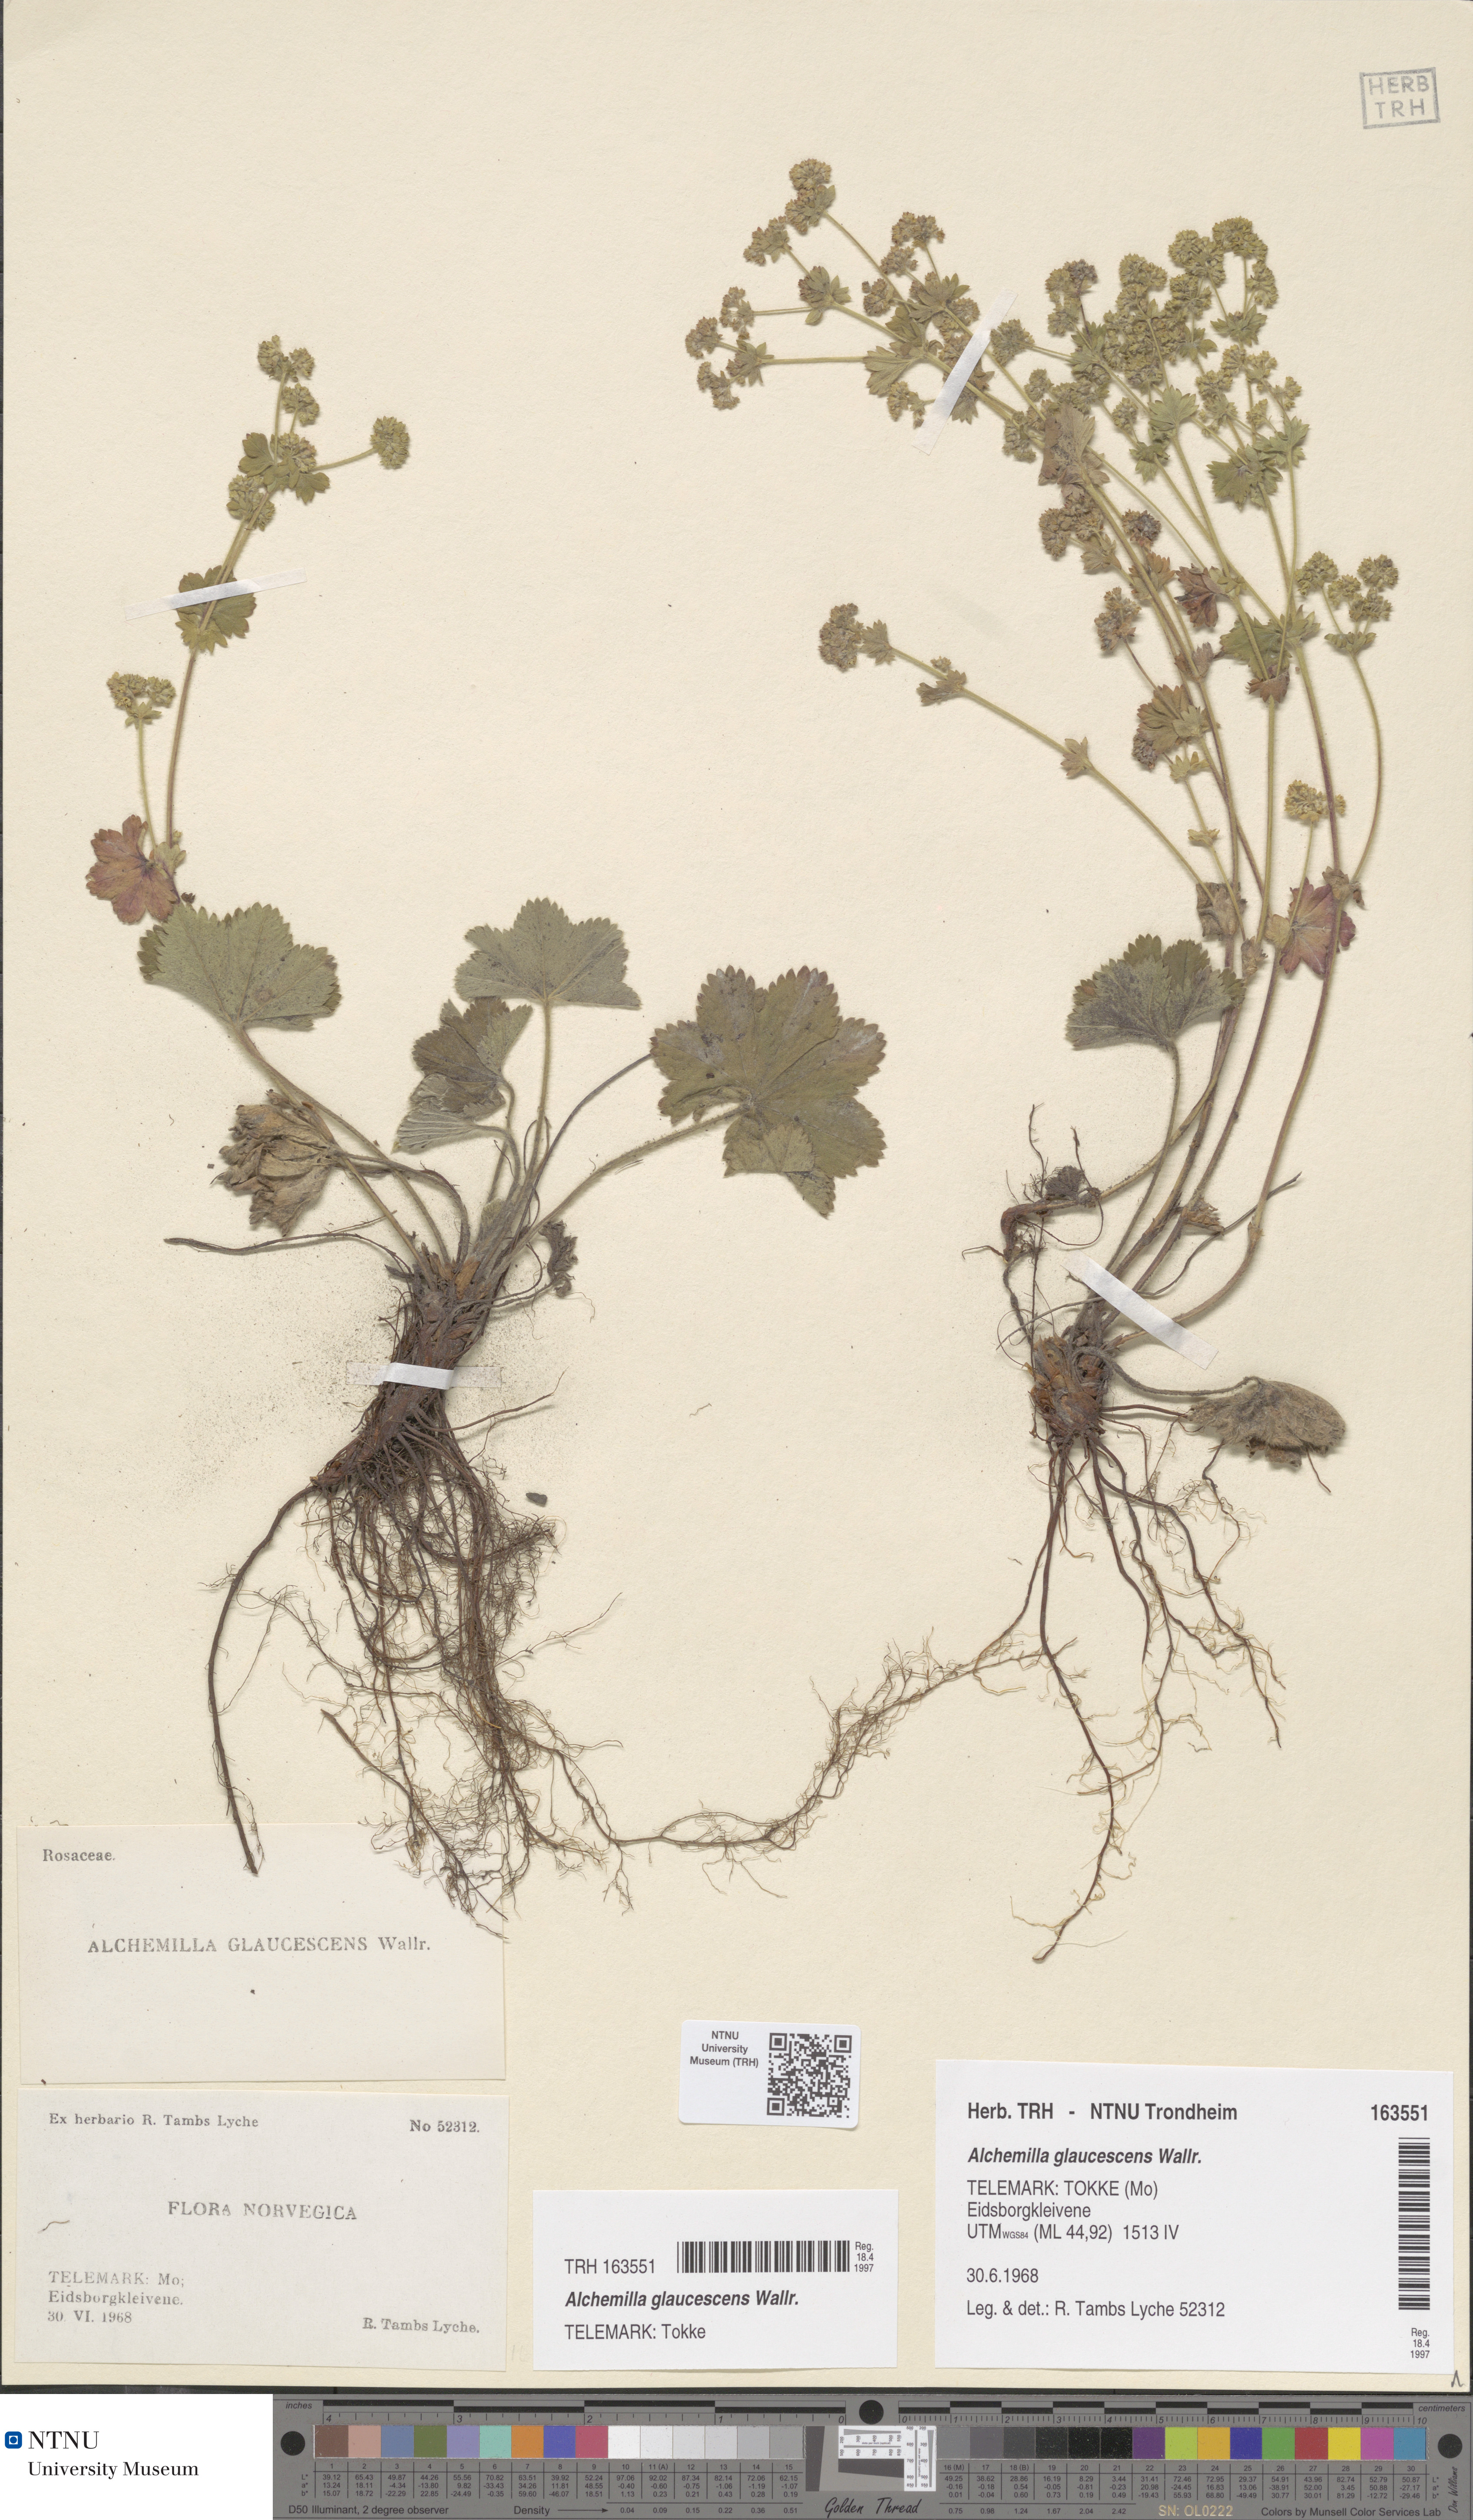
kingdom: Plantae
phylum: Tracheophyta
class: Magnoliopsida
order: Rosales
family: Rosaceae
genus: Alchemilla
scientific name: Alchemilla glaucescens
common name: Silky lady's mantle
